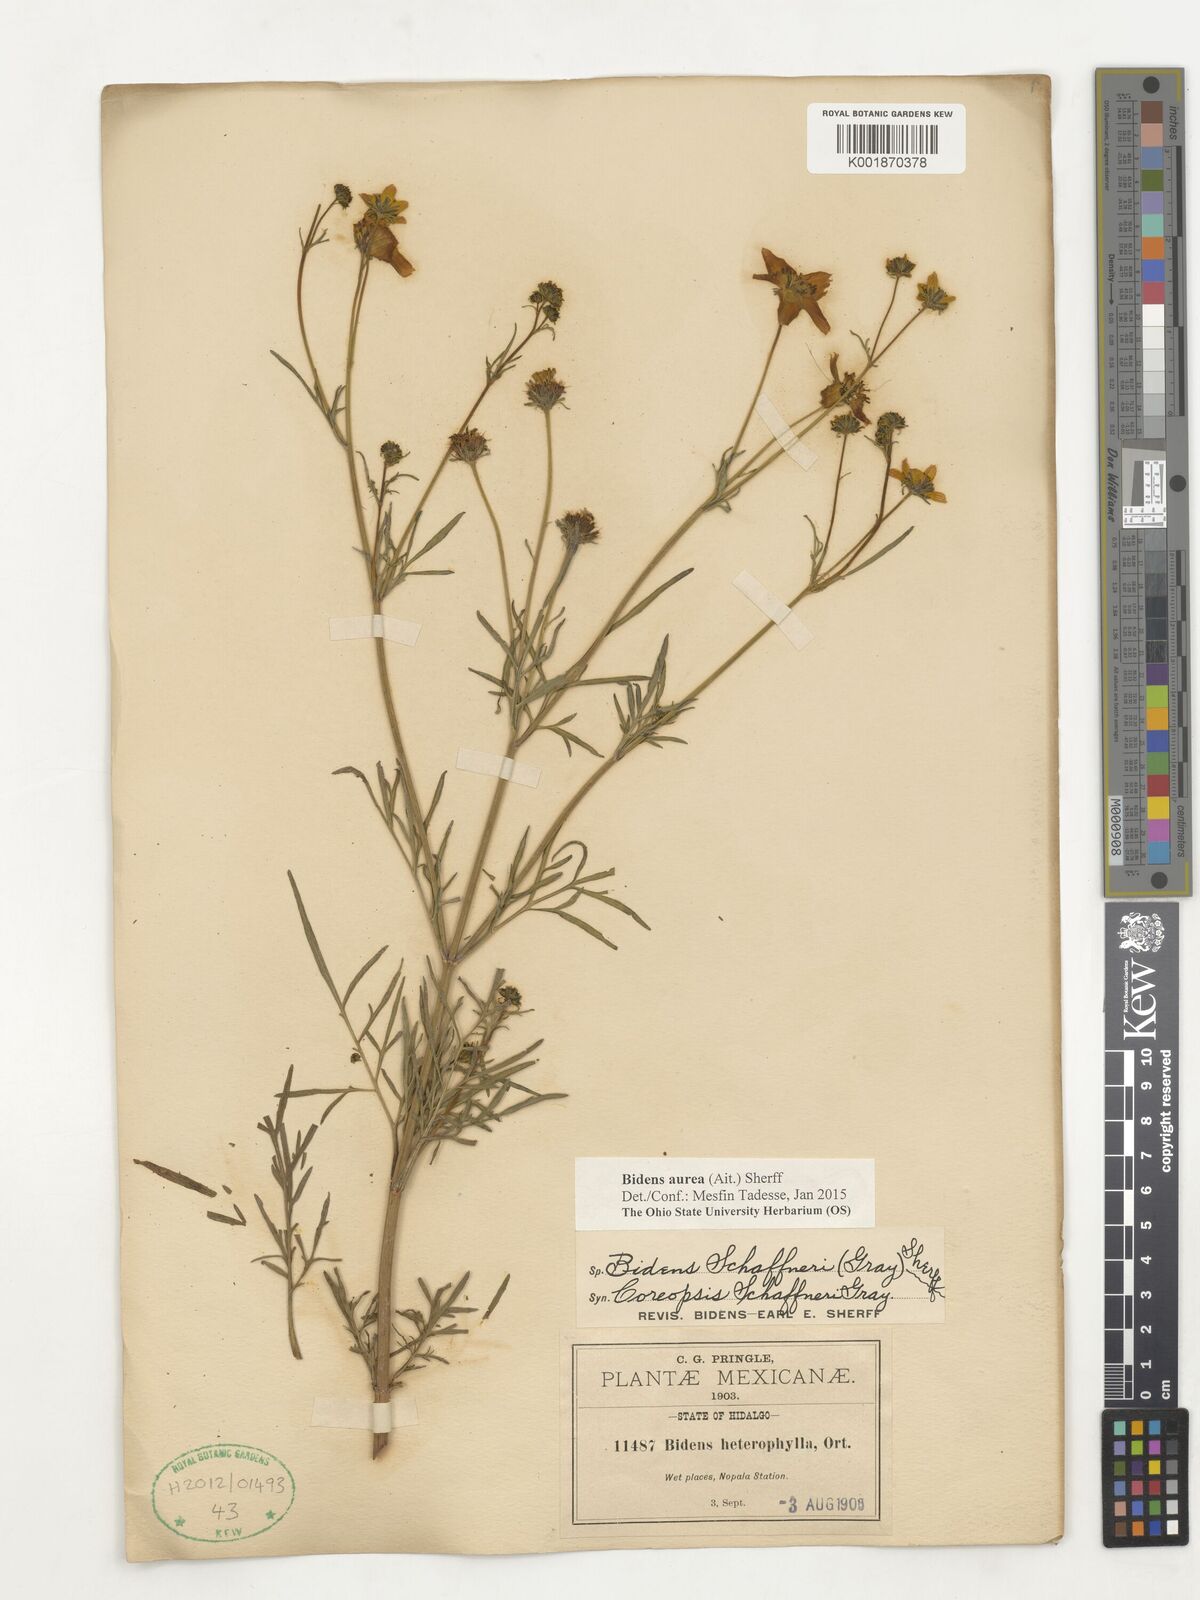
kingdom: Plantae
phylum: Tracheophyta
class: Magnoliopsida
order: Asterales
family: Asteraceae
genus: Bidens
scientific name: Bidens aurea
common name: Arizona beggar-ticks
